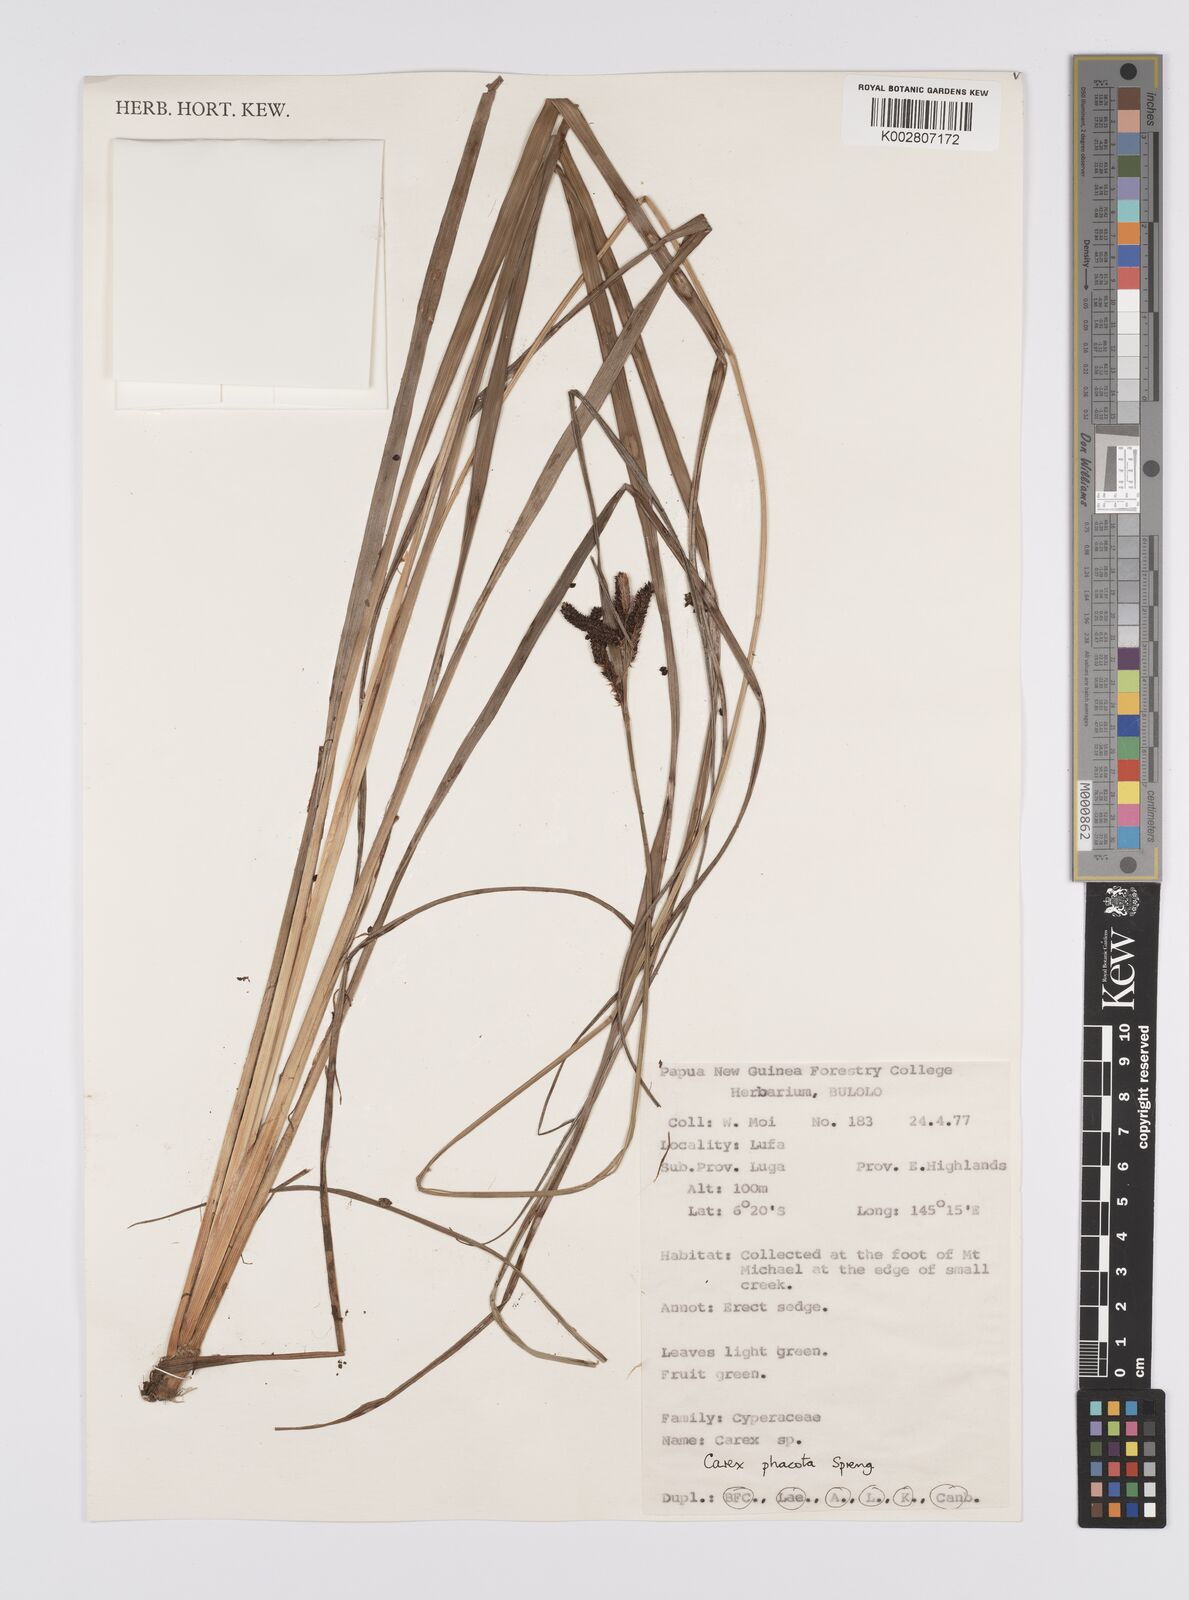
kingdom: Plantae
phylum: Tracheophyta
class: Liliopsida
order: Poales
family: Cyperaceae
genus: Carex
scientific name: Carex phacota
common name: Lakeshore sedge
